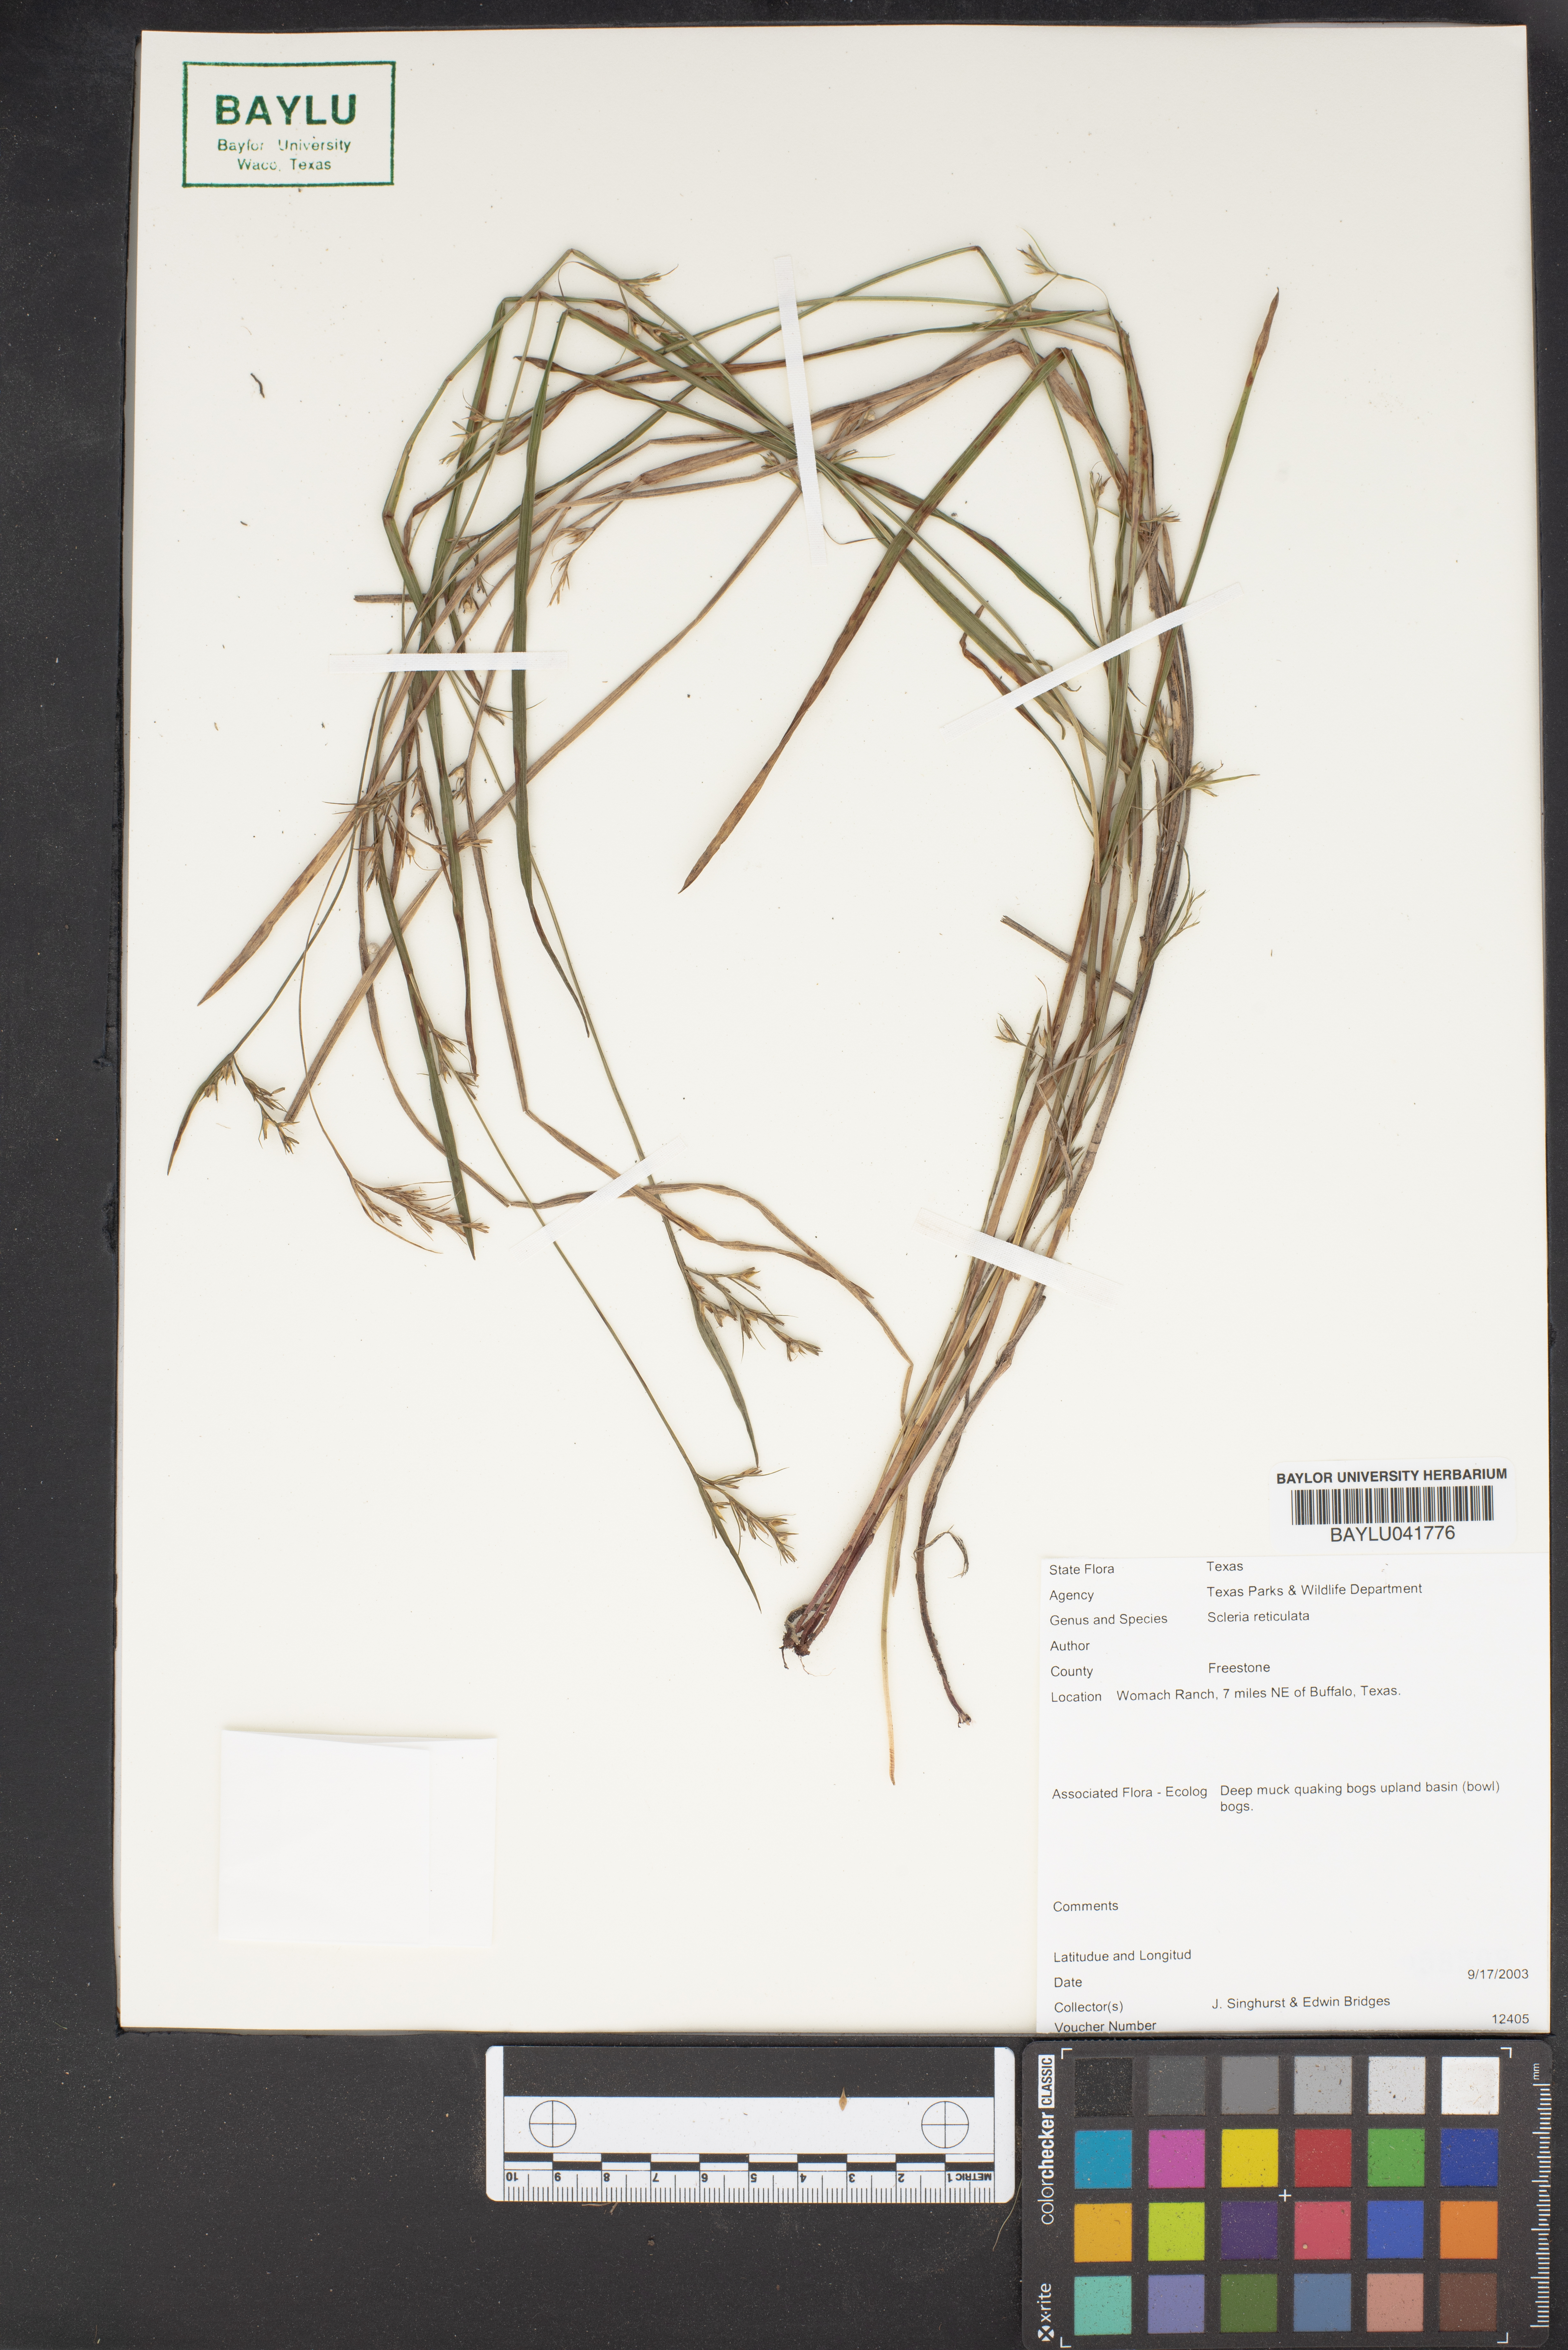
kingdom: Plantae
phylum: Tracheophyta
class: Liliopsida
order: Poales
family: Cyperaceae
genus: Diplacrum
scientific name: Diplacrum reticulatum
